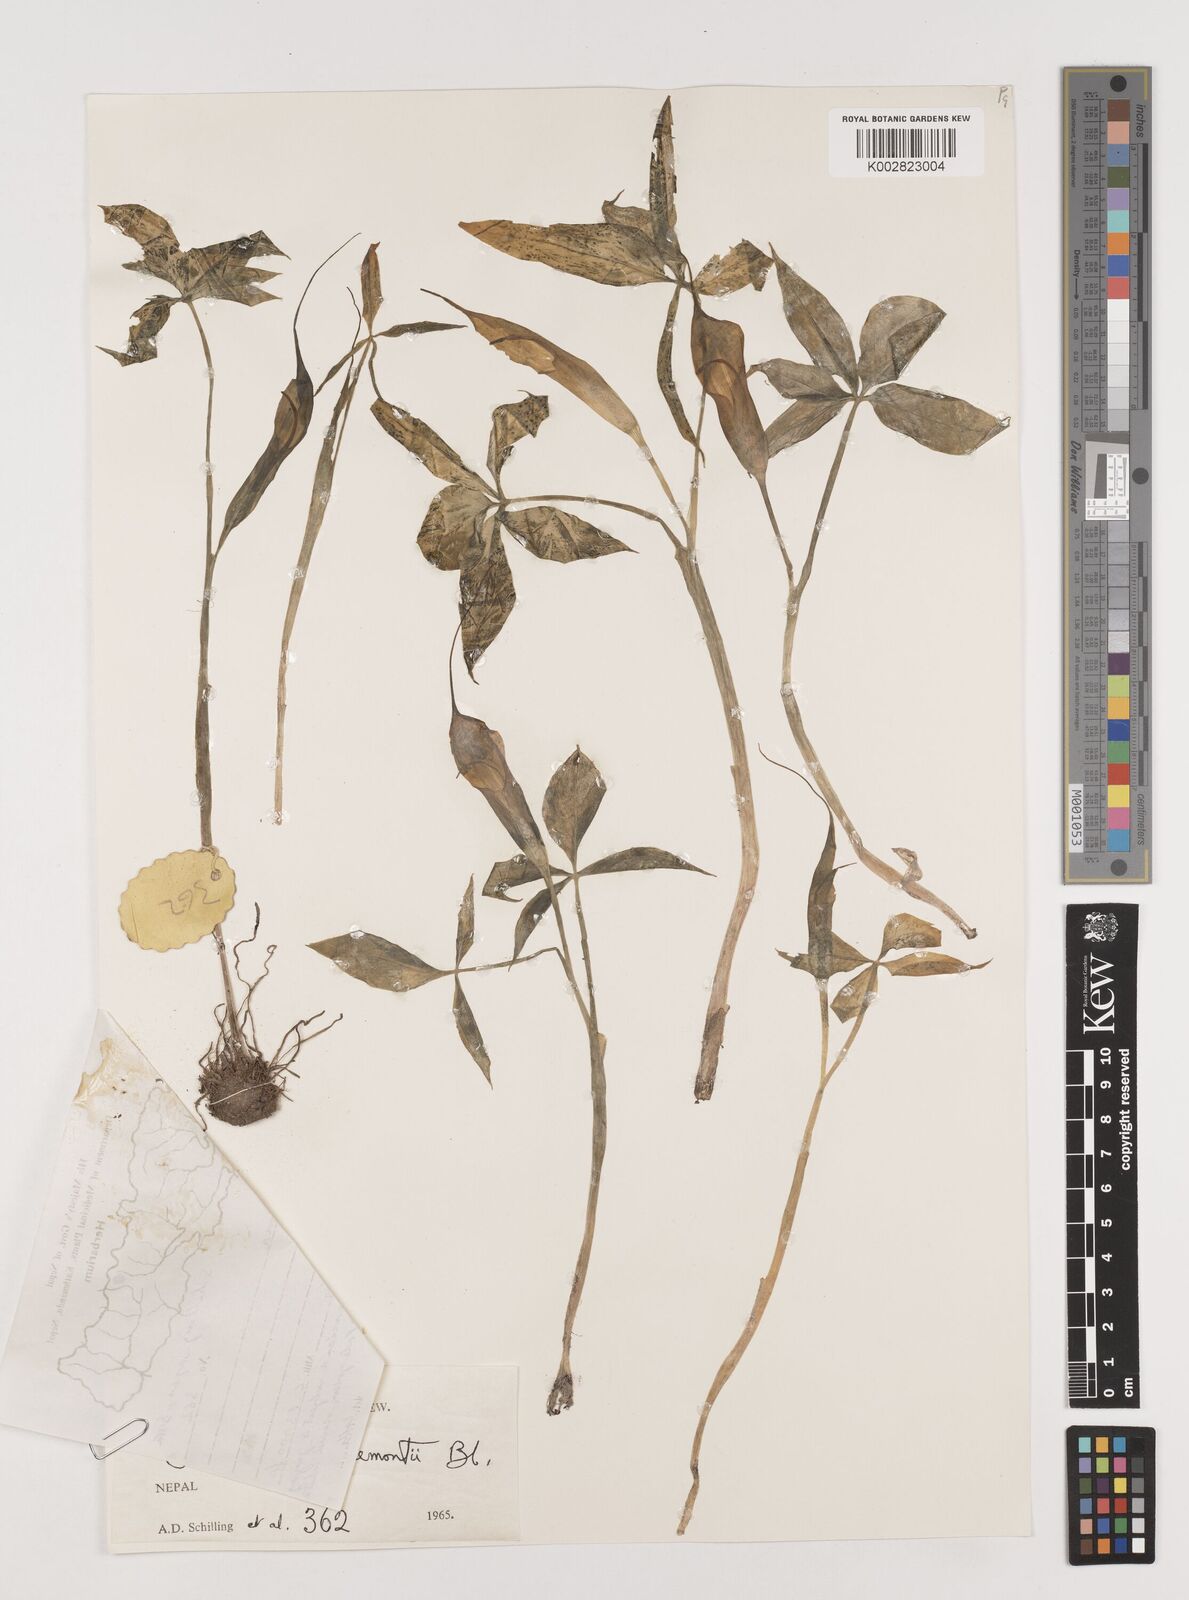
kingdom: Plantae
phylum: Tracheophyta
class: Liliopsida
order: Alismatales
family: Araceae
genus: Arisaema
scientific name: Arisaema jacquemontii
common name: Jacquemont's cobra-lily
